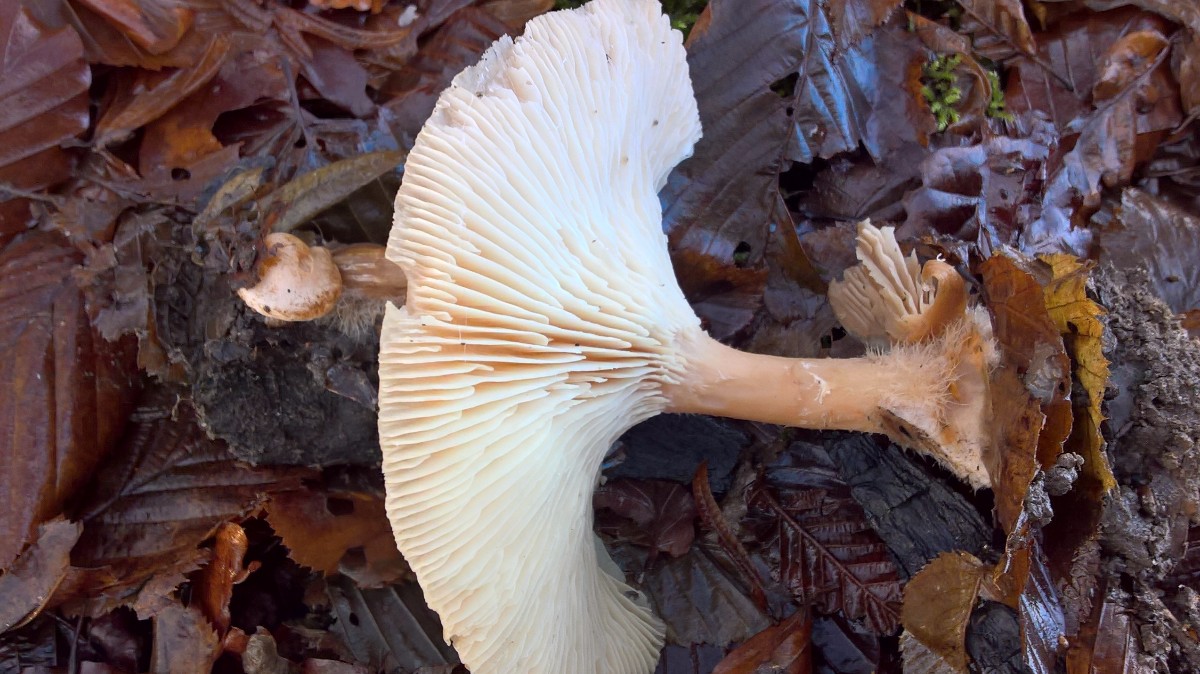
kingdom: Fungi
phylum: Basidiomycota
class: Agaricomycetes
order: Agaricales
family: Tricholomataceae
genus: Infundibulicybe
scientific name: Infundibulicybe geotropa
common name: stor tragthat
